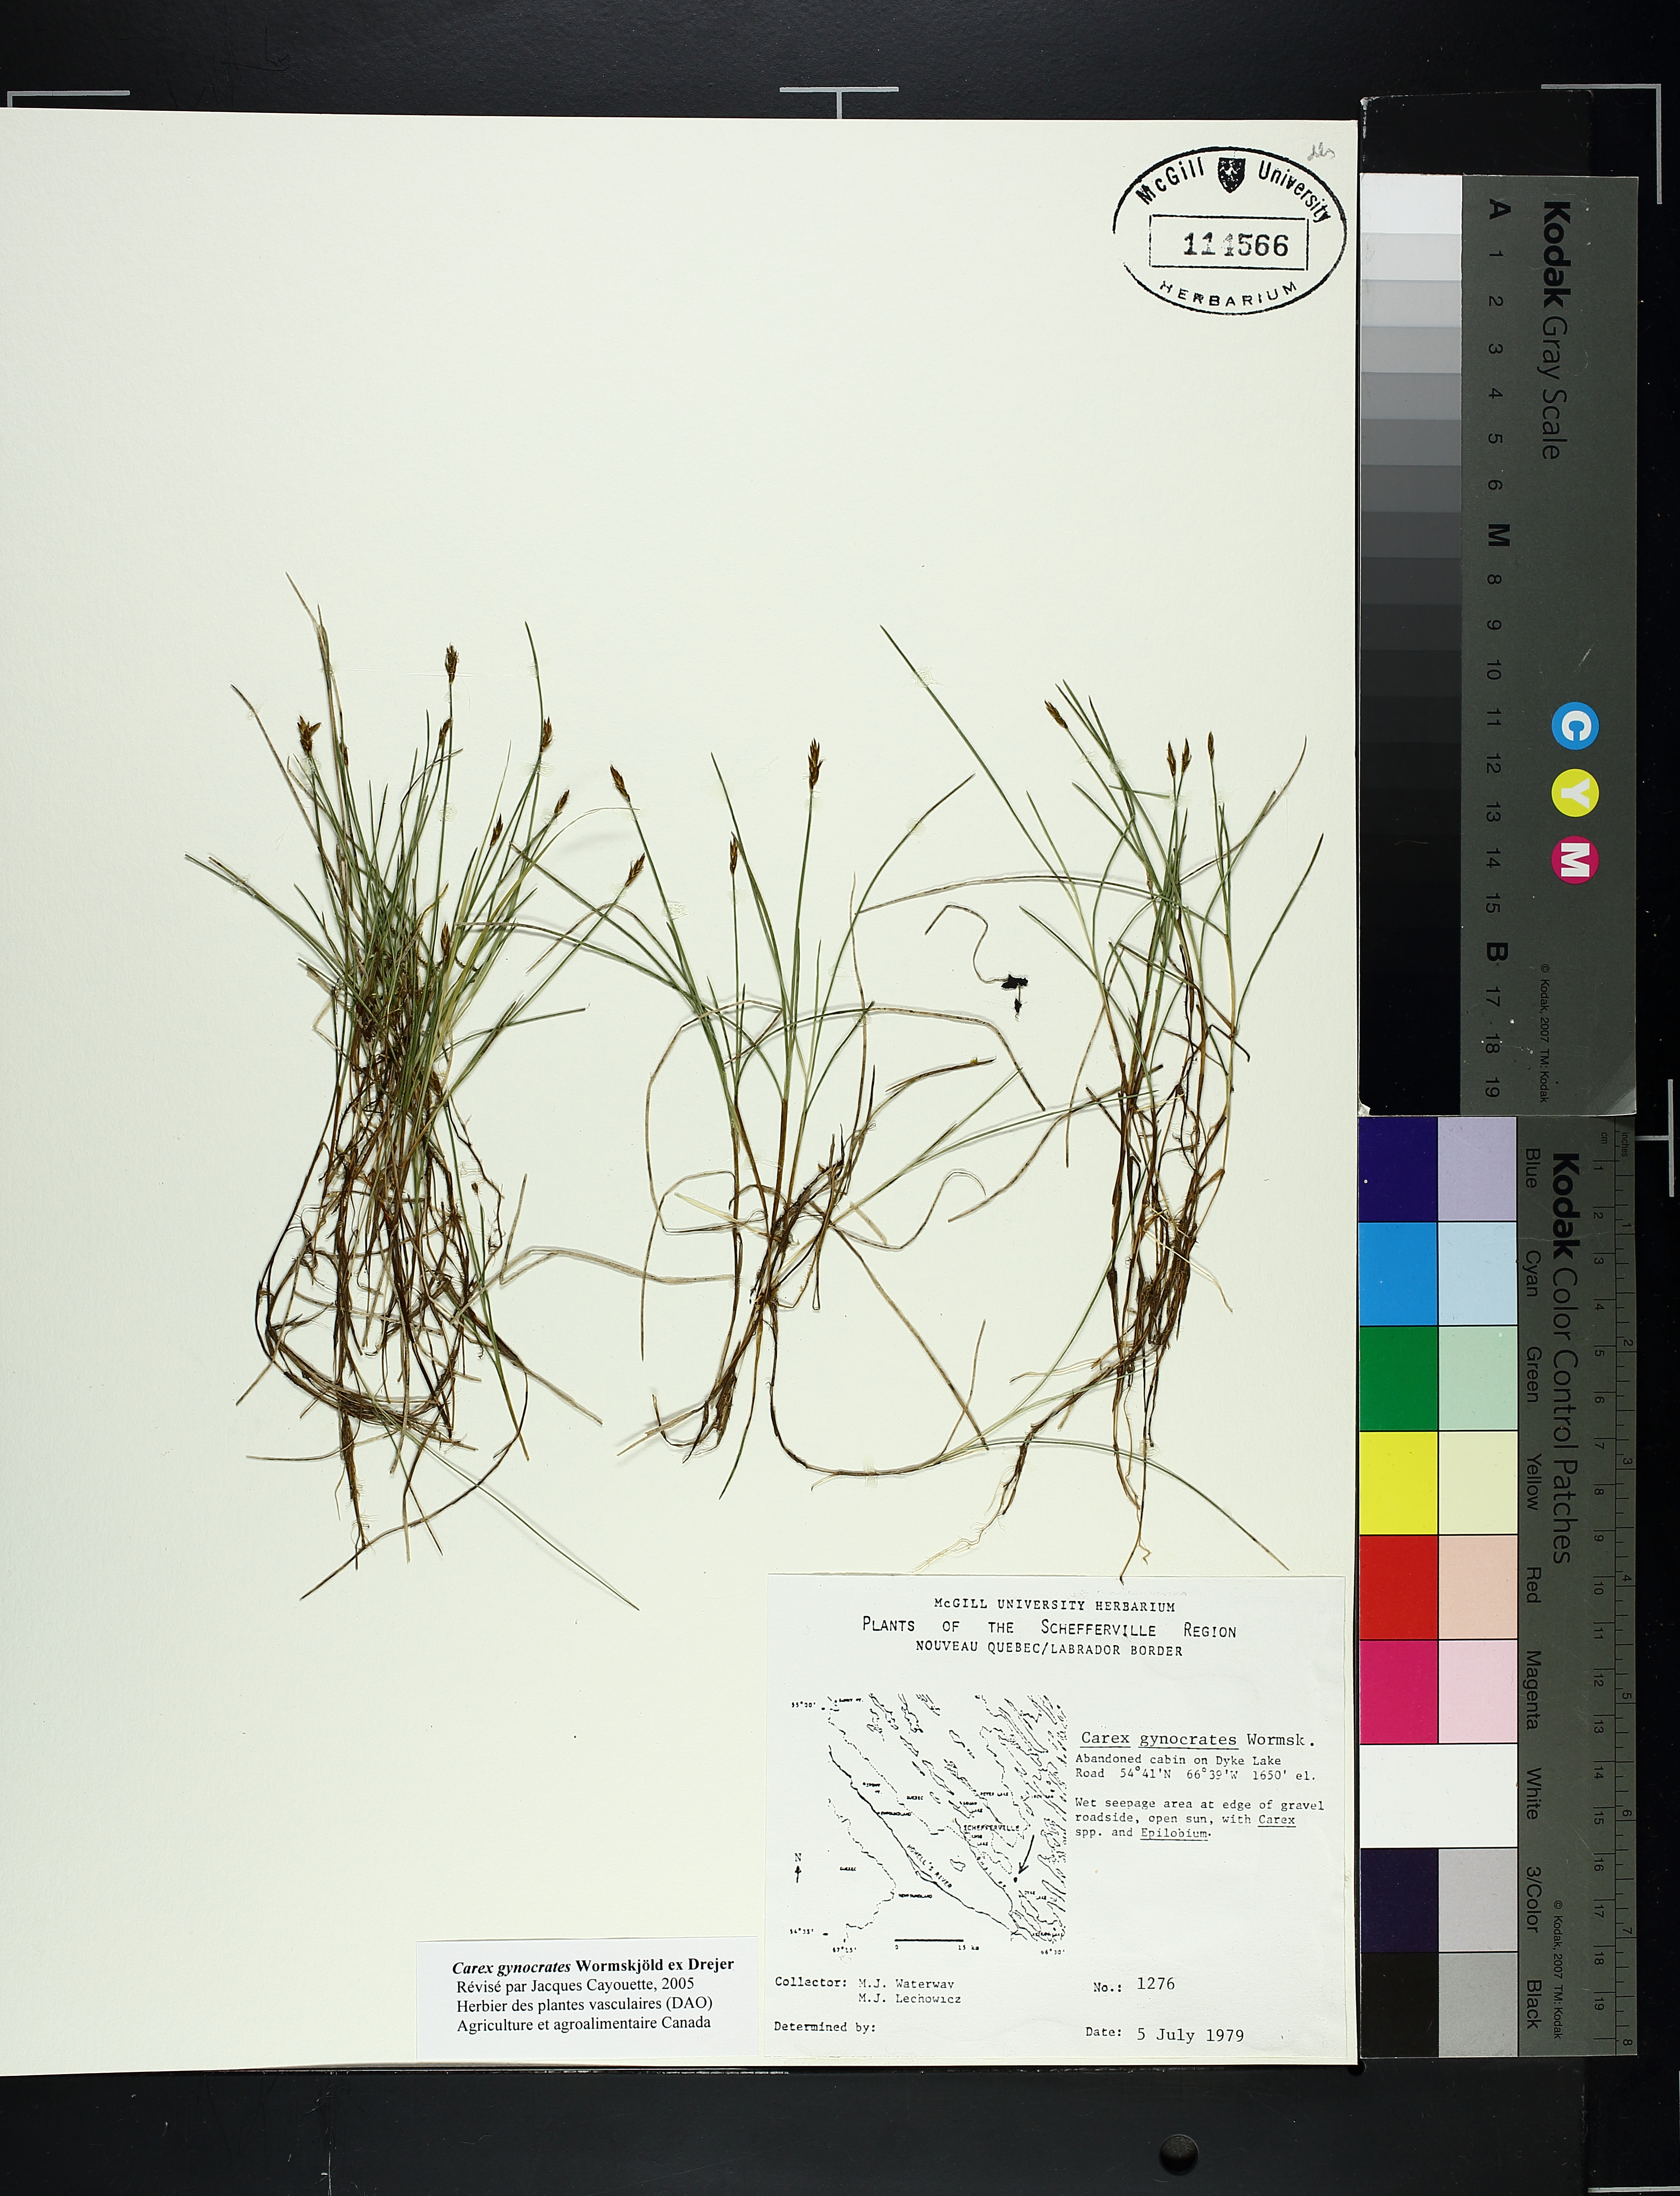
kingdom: Plantae
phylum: Tracheophyta
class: Liliopsida
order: Poales
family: Cyperaceae
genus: Carex
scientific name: Carex gynocrates
